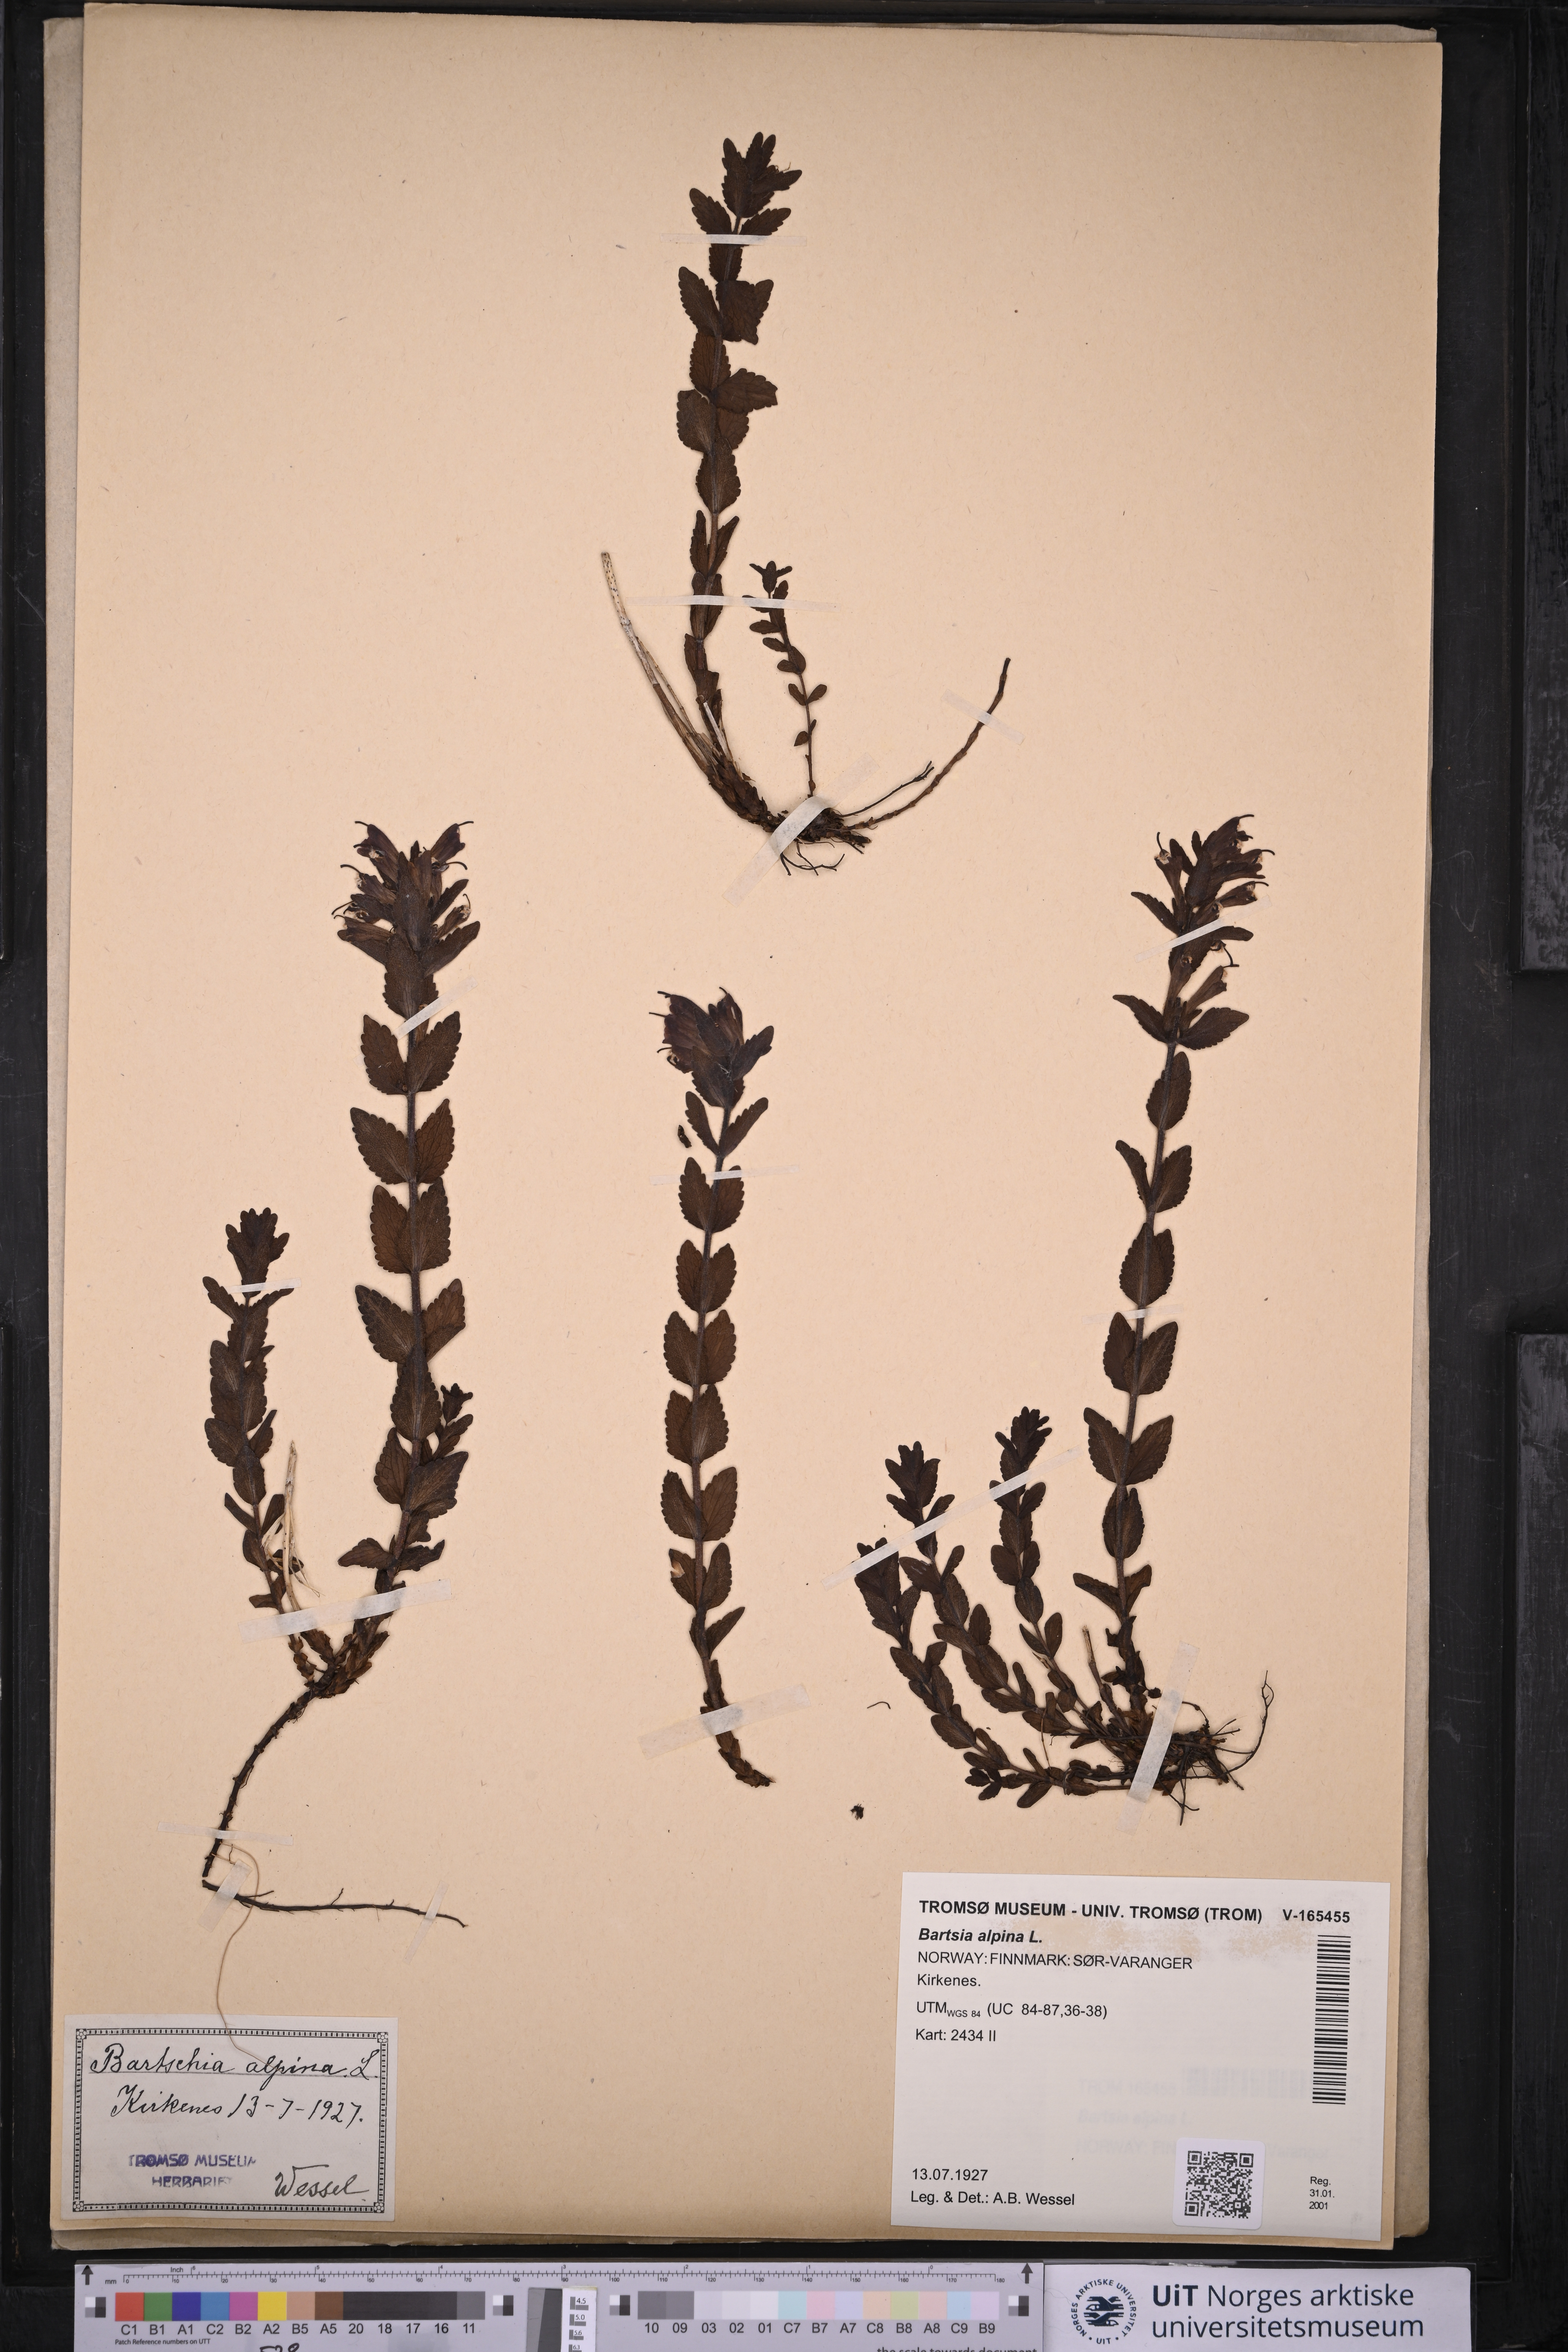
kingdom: Plantae
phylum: Tracheophyta
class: Magnoliopsida
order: Lamiales
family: Orobanchaceae
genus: Bartsia
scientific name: Bartsia alpina
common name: Alpine bartsia
